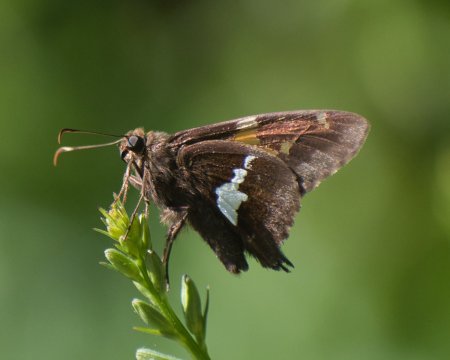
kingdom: Animalia
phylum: Arthropoda
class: Insecta
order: Lepidoptera
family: Hesperiidae
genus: Epargyreus
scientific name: Epargyreus clarus
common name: Silver-spotted Skipper
